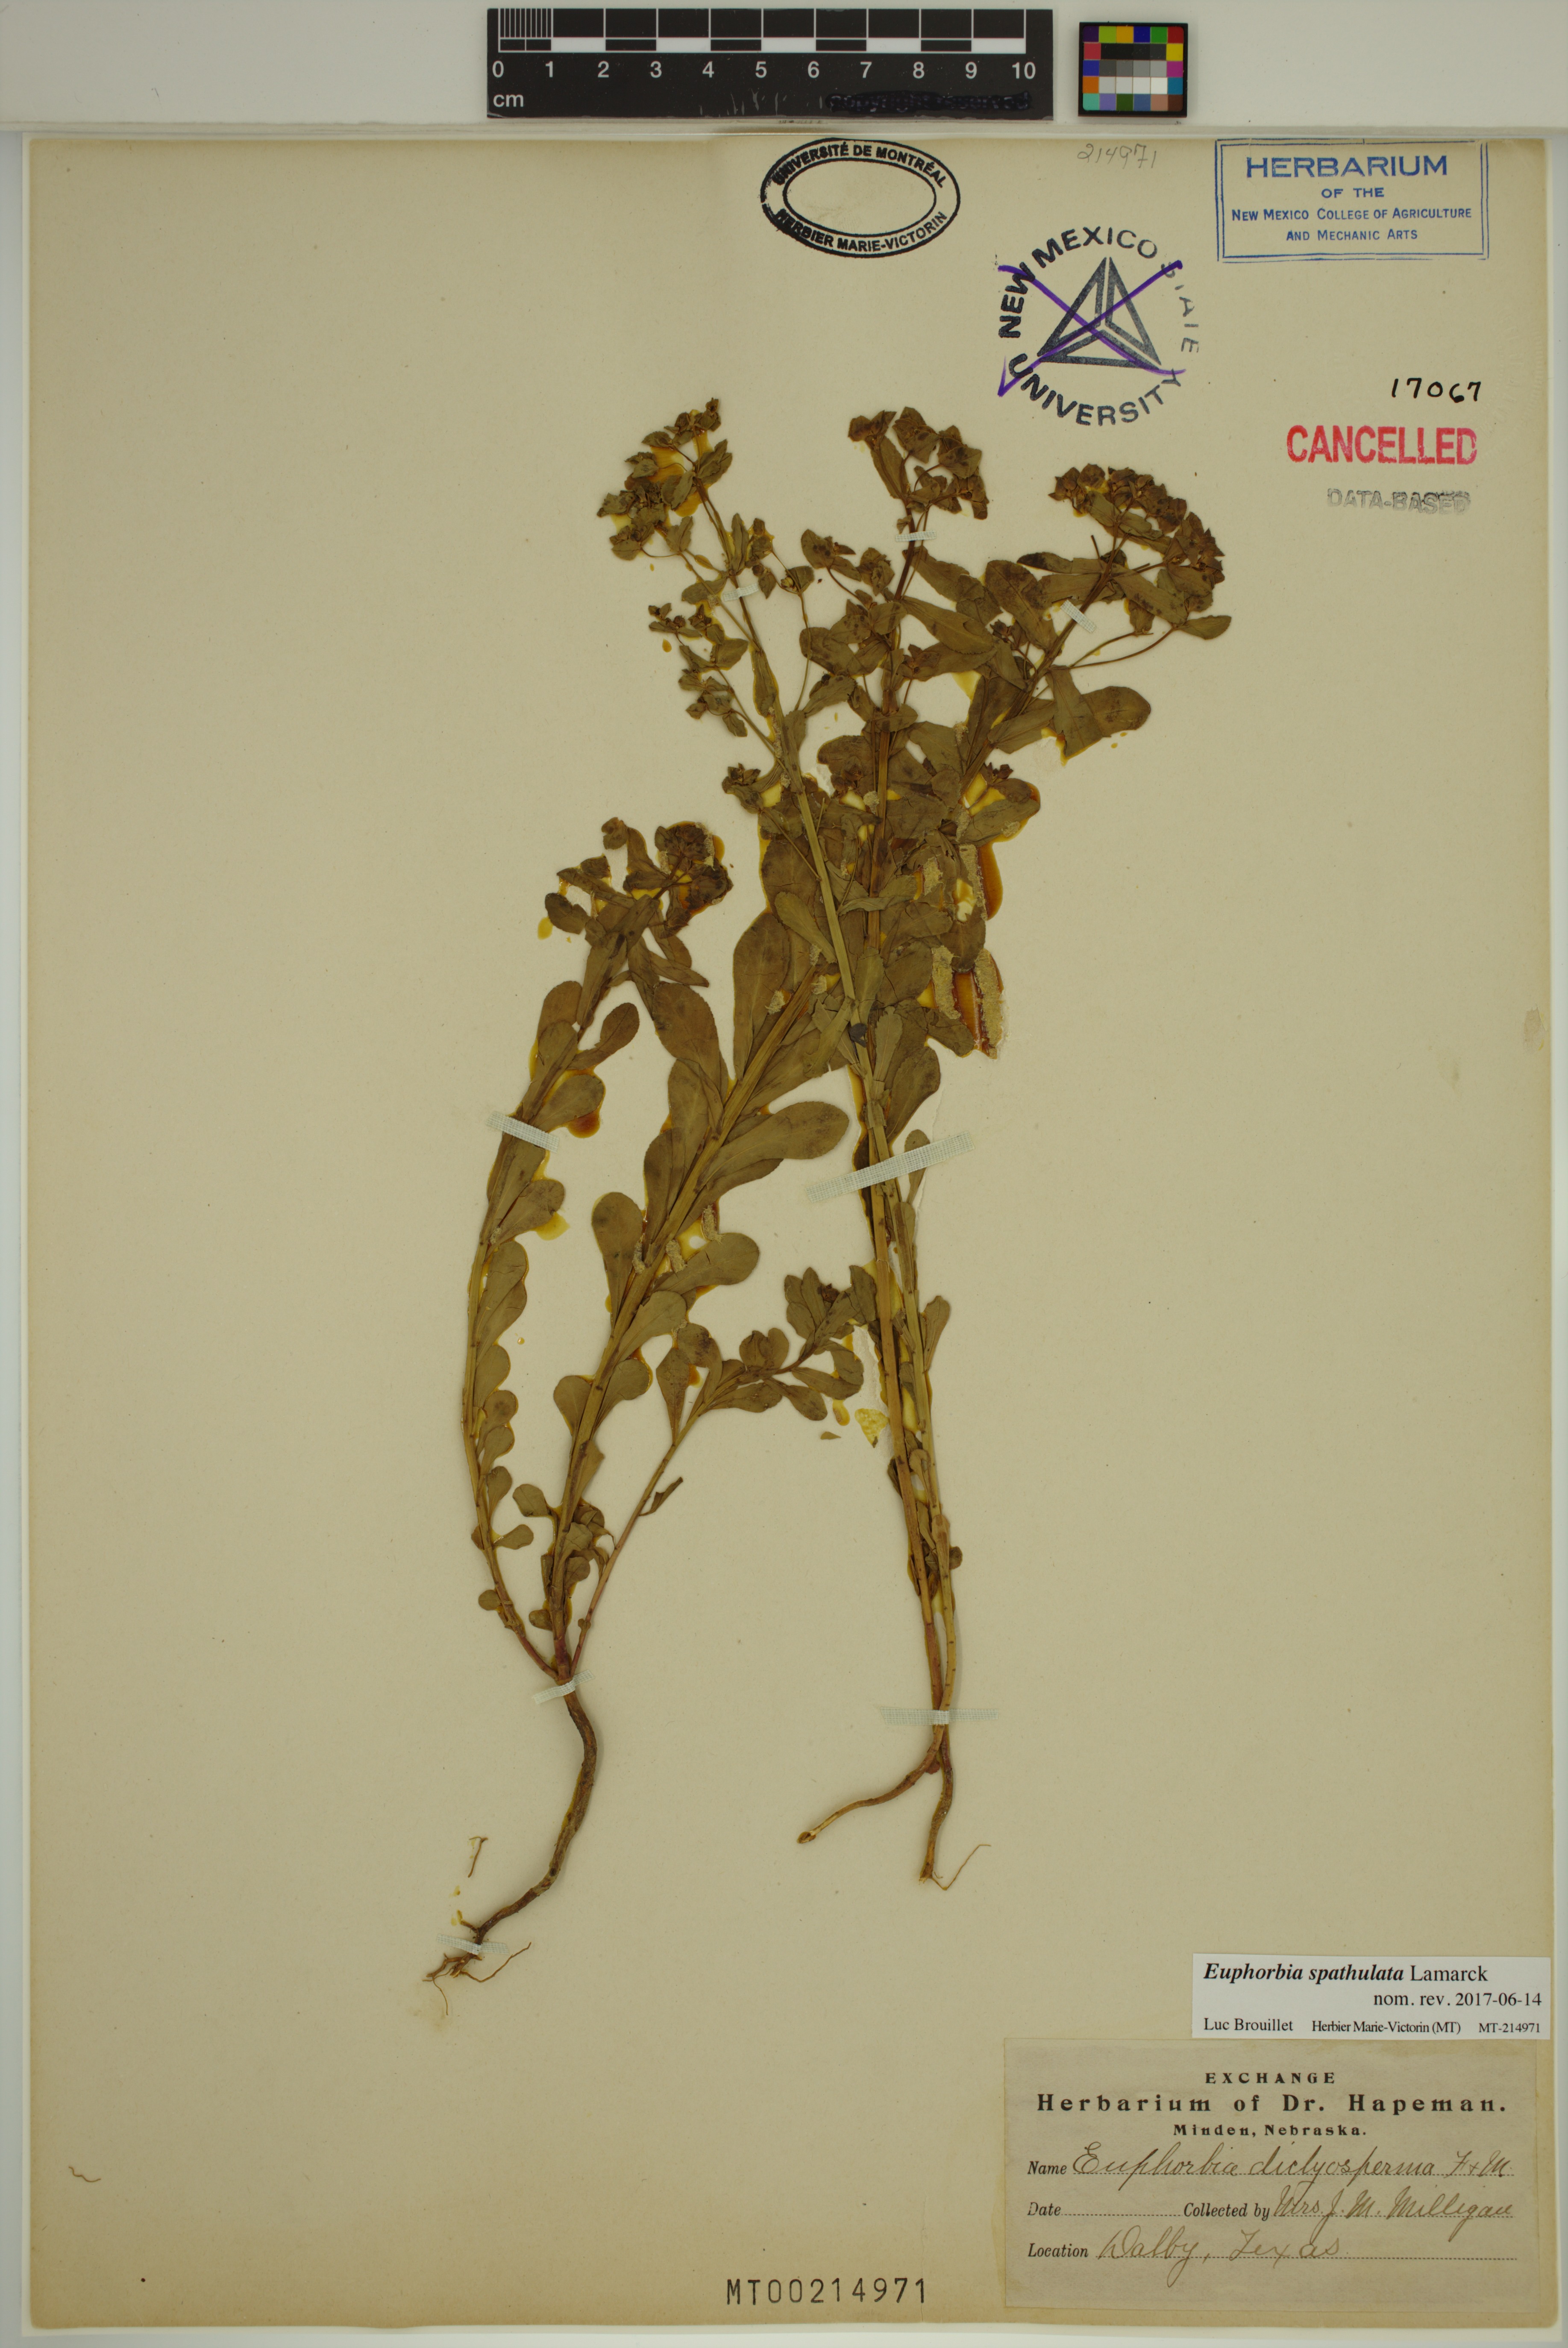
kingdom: Plantae
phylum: Tracheophyta
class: Magnoliopsida
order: Malpighiales
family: Euphorbiaceae
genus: Euphorbia
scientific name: Euphorbia spathulata
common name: Blunt spurge
